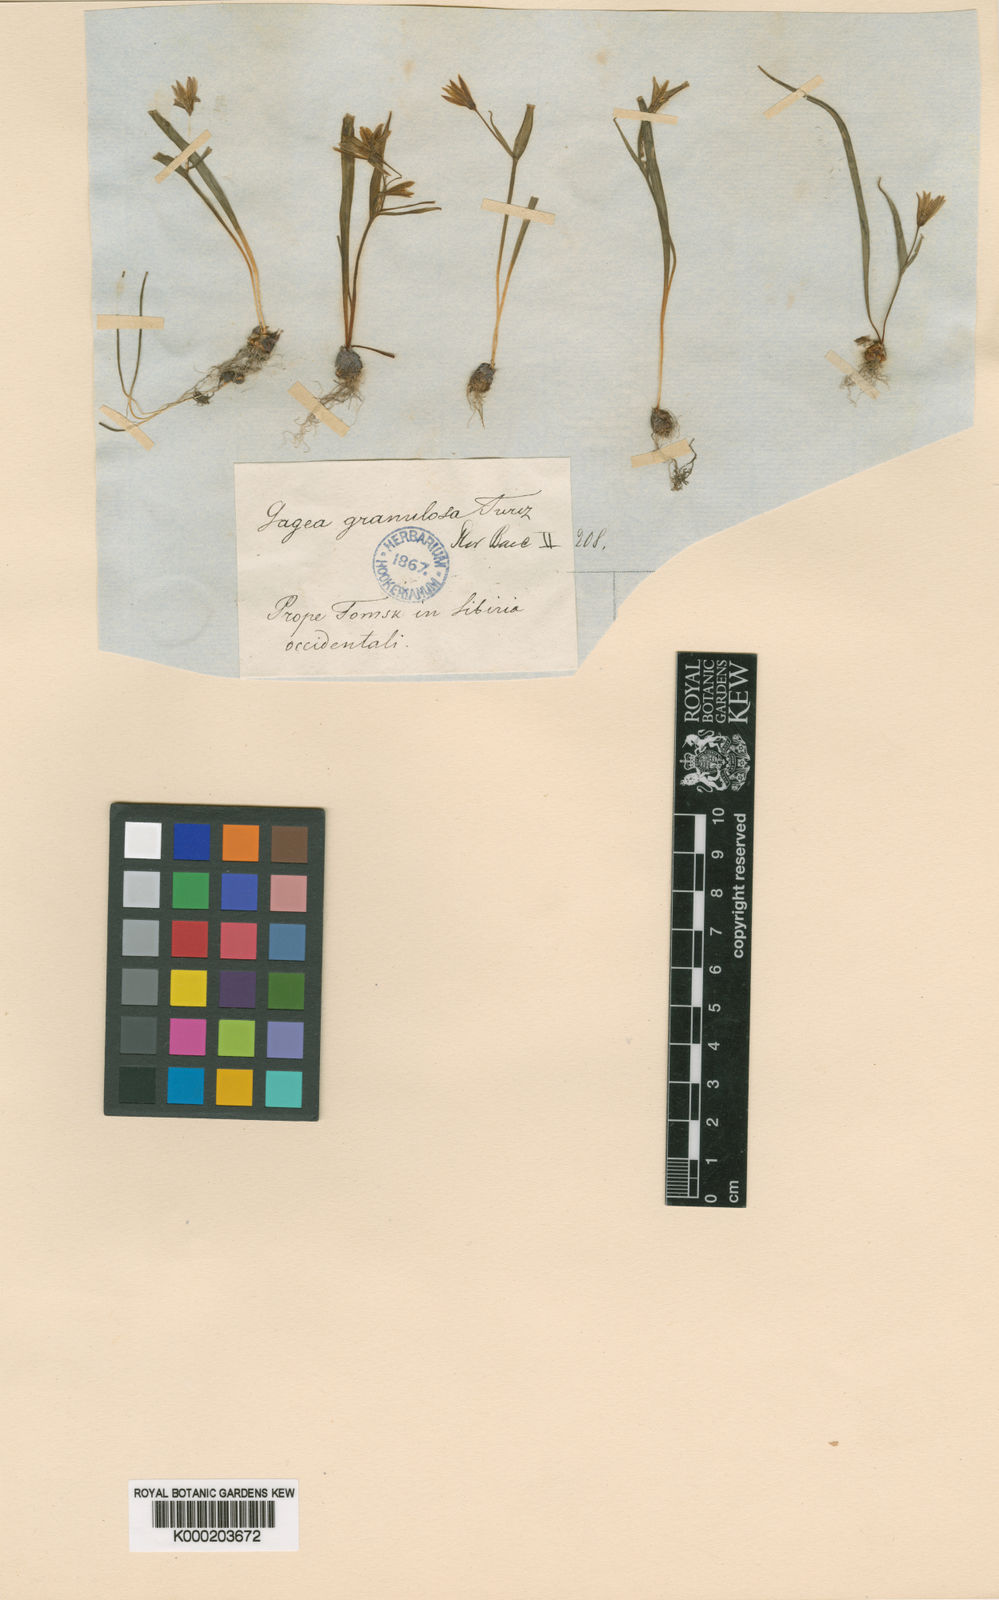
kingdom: Plantae
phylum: Tracheophyta
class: Liliopsida
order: Liliales
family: Liliaceae
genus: Gagea
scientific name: Gagea granulosa
